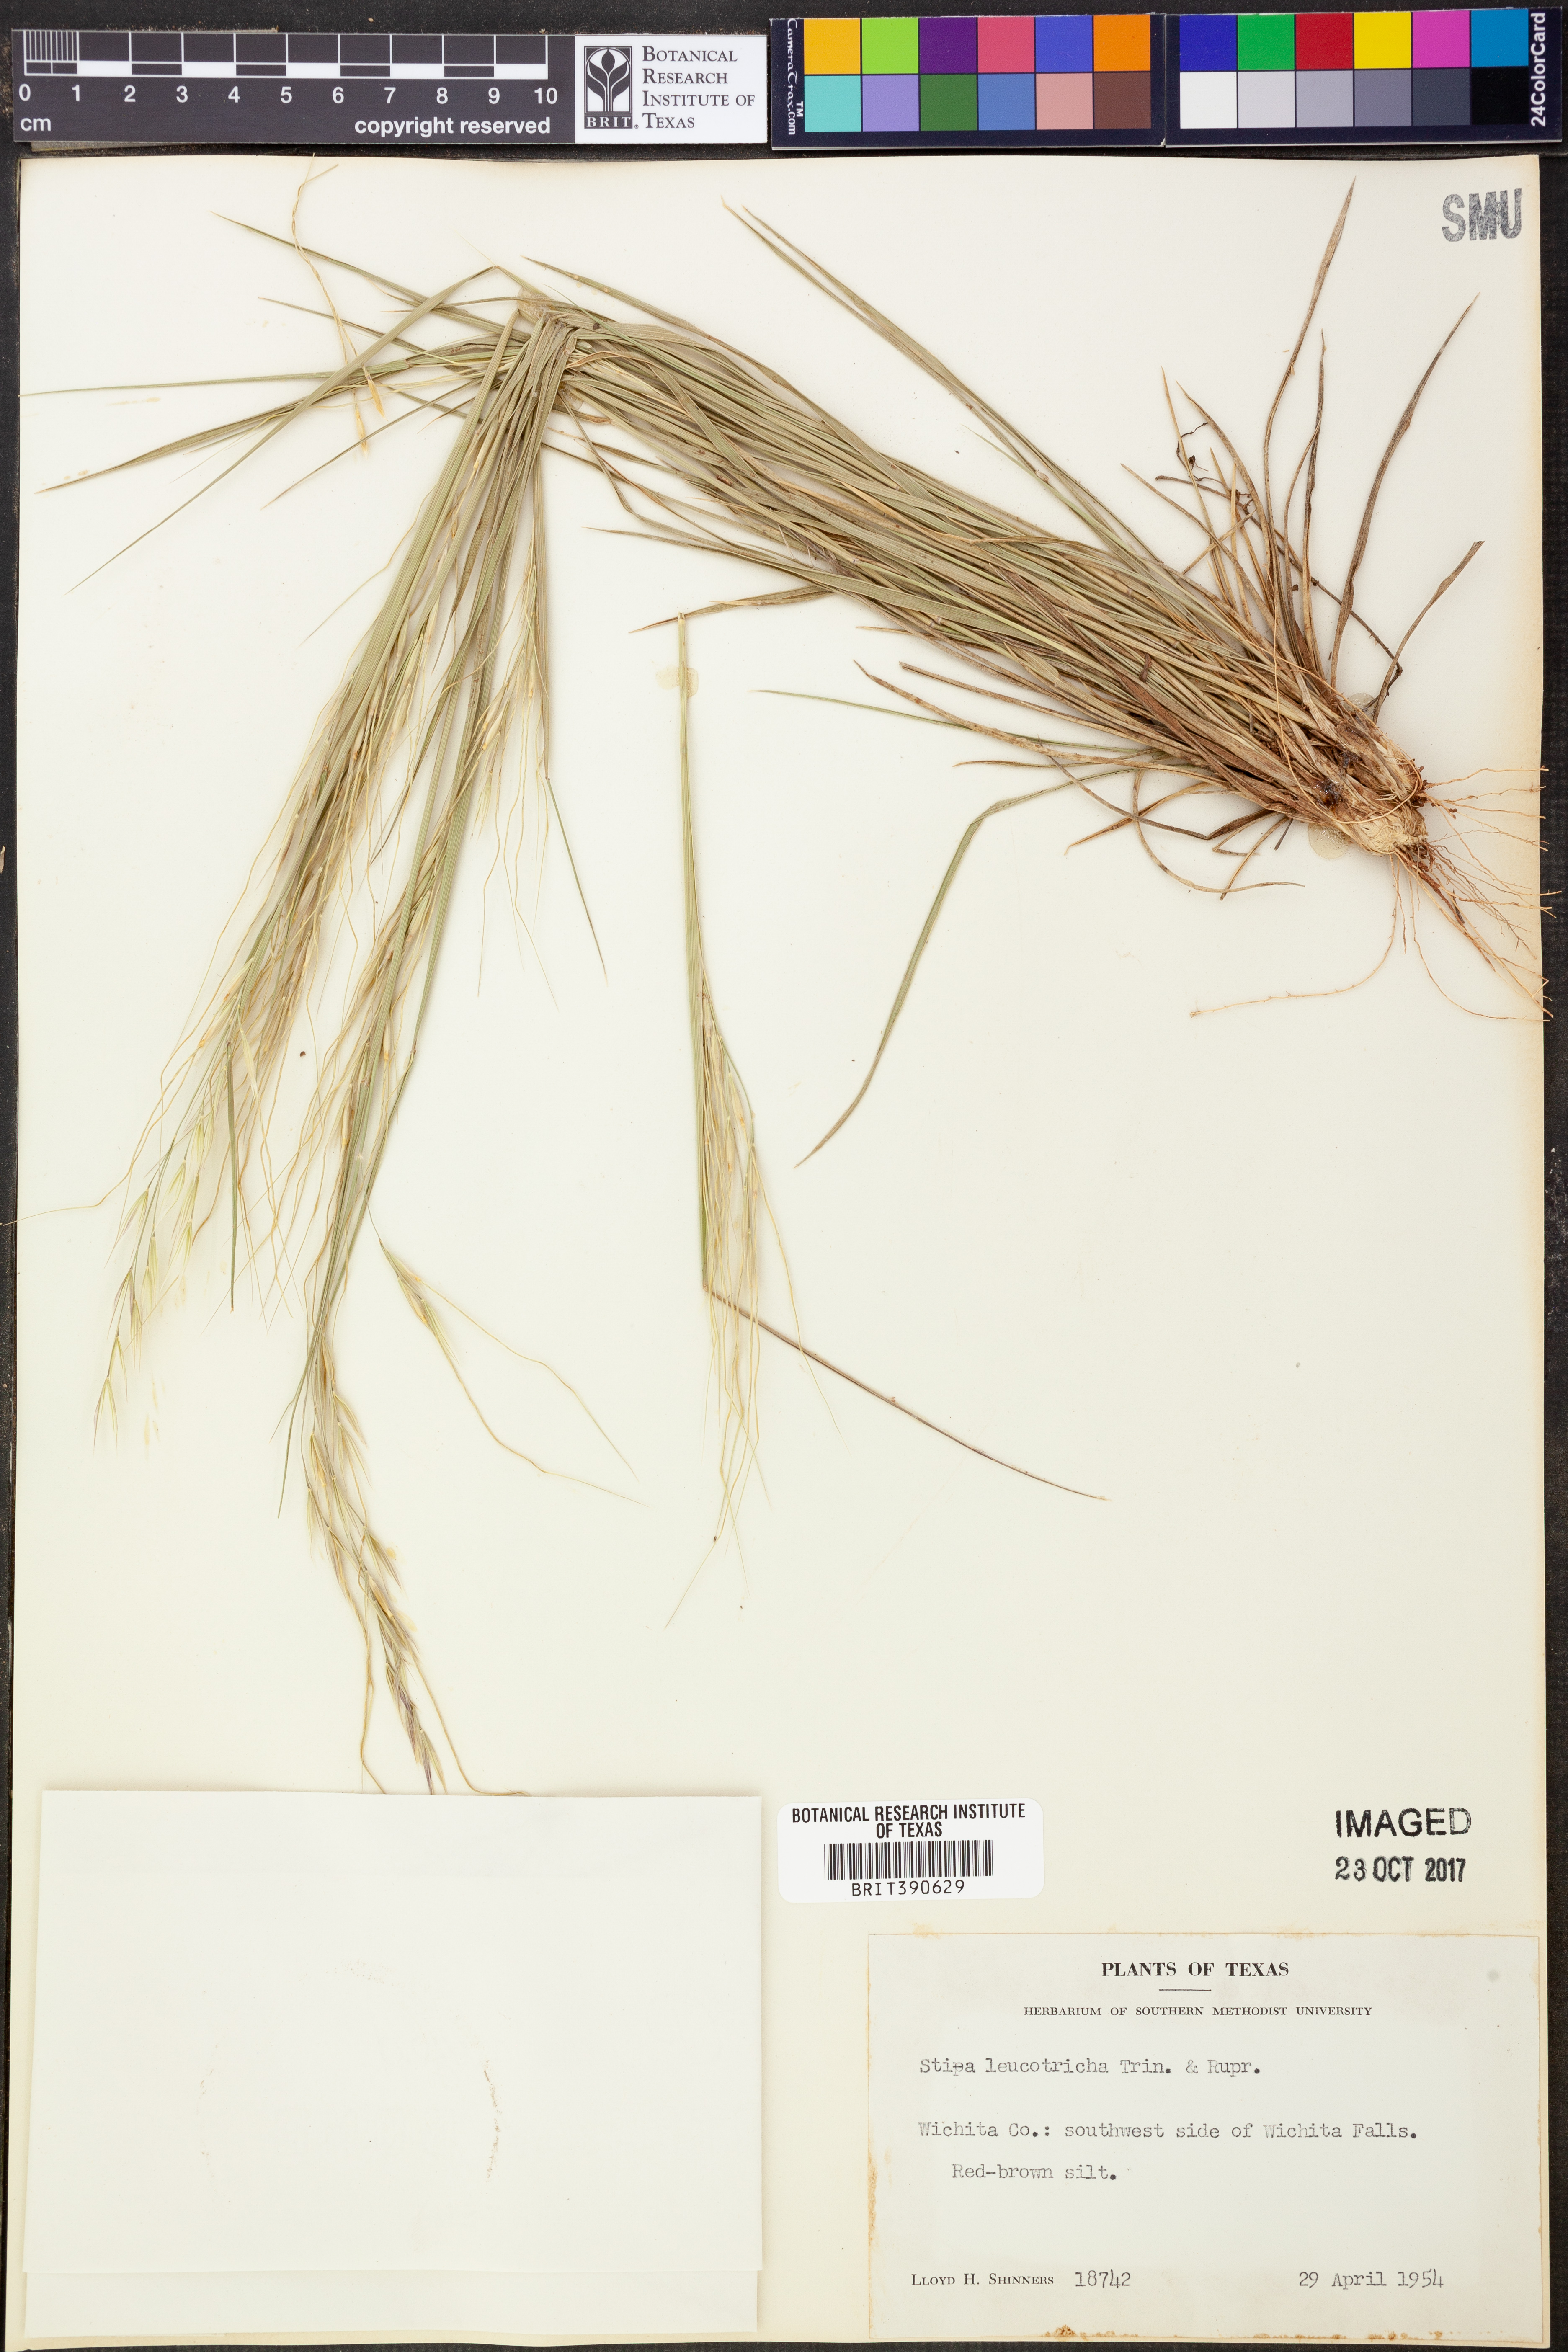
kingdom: Plantae
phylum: Tracheophyta
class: Liliopsida
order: Poales
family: Poaceae
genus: Nassella
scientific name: Nassella leucotricha
